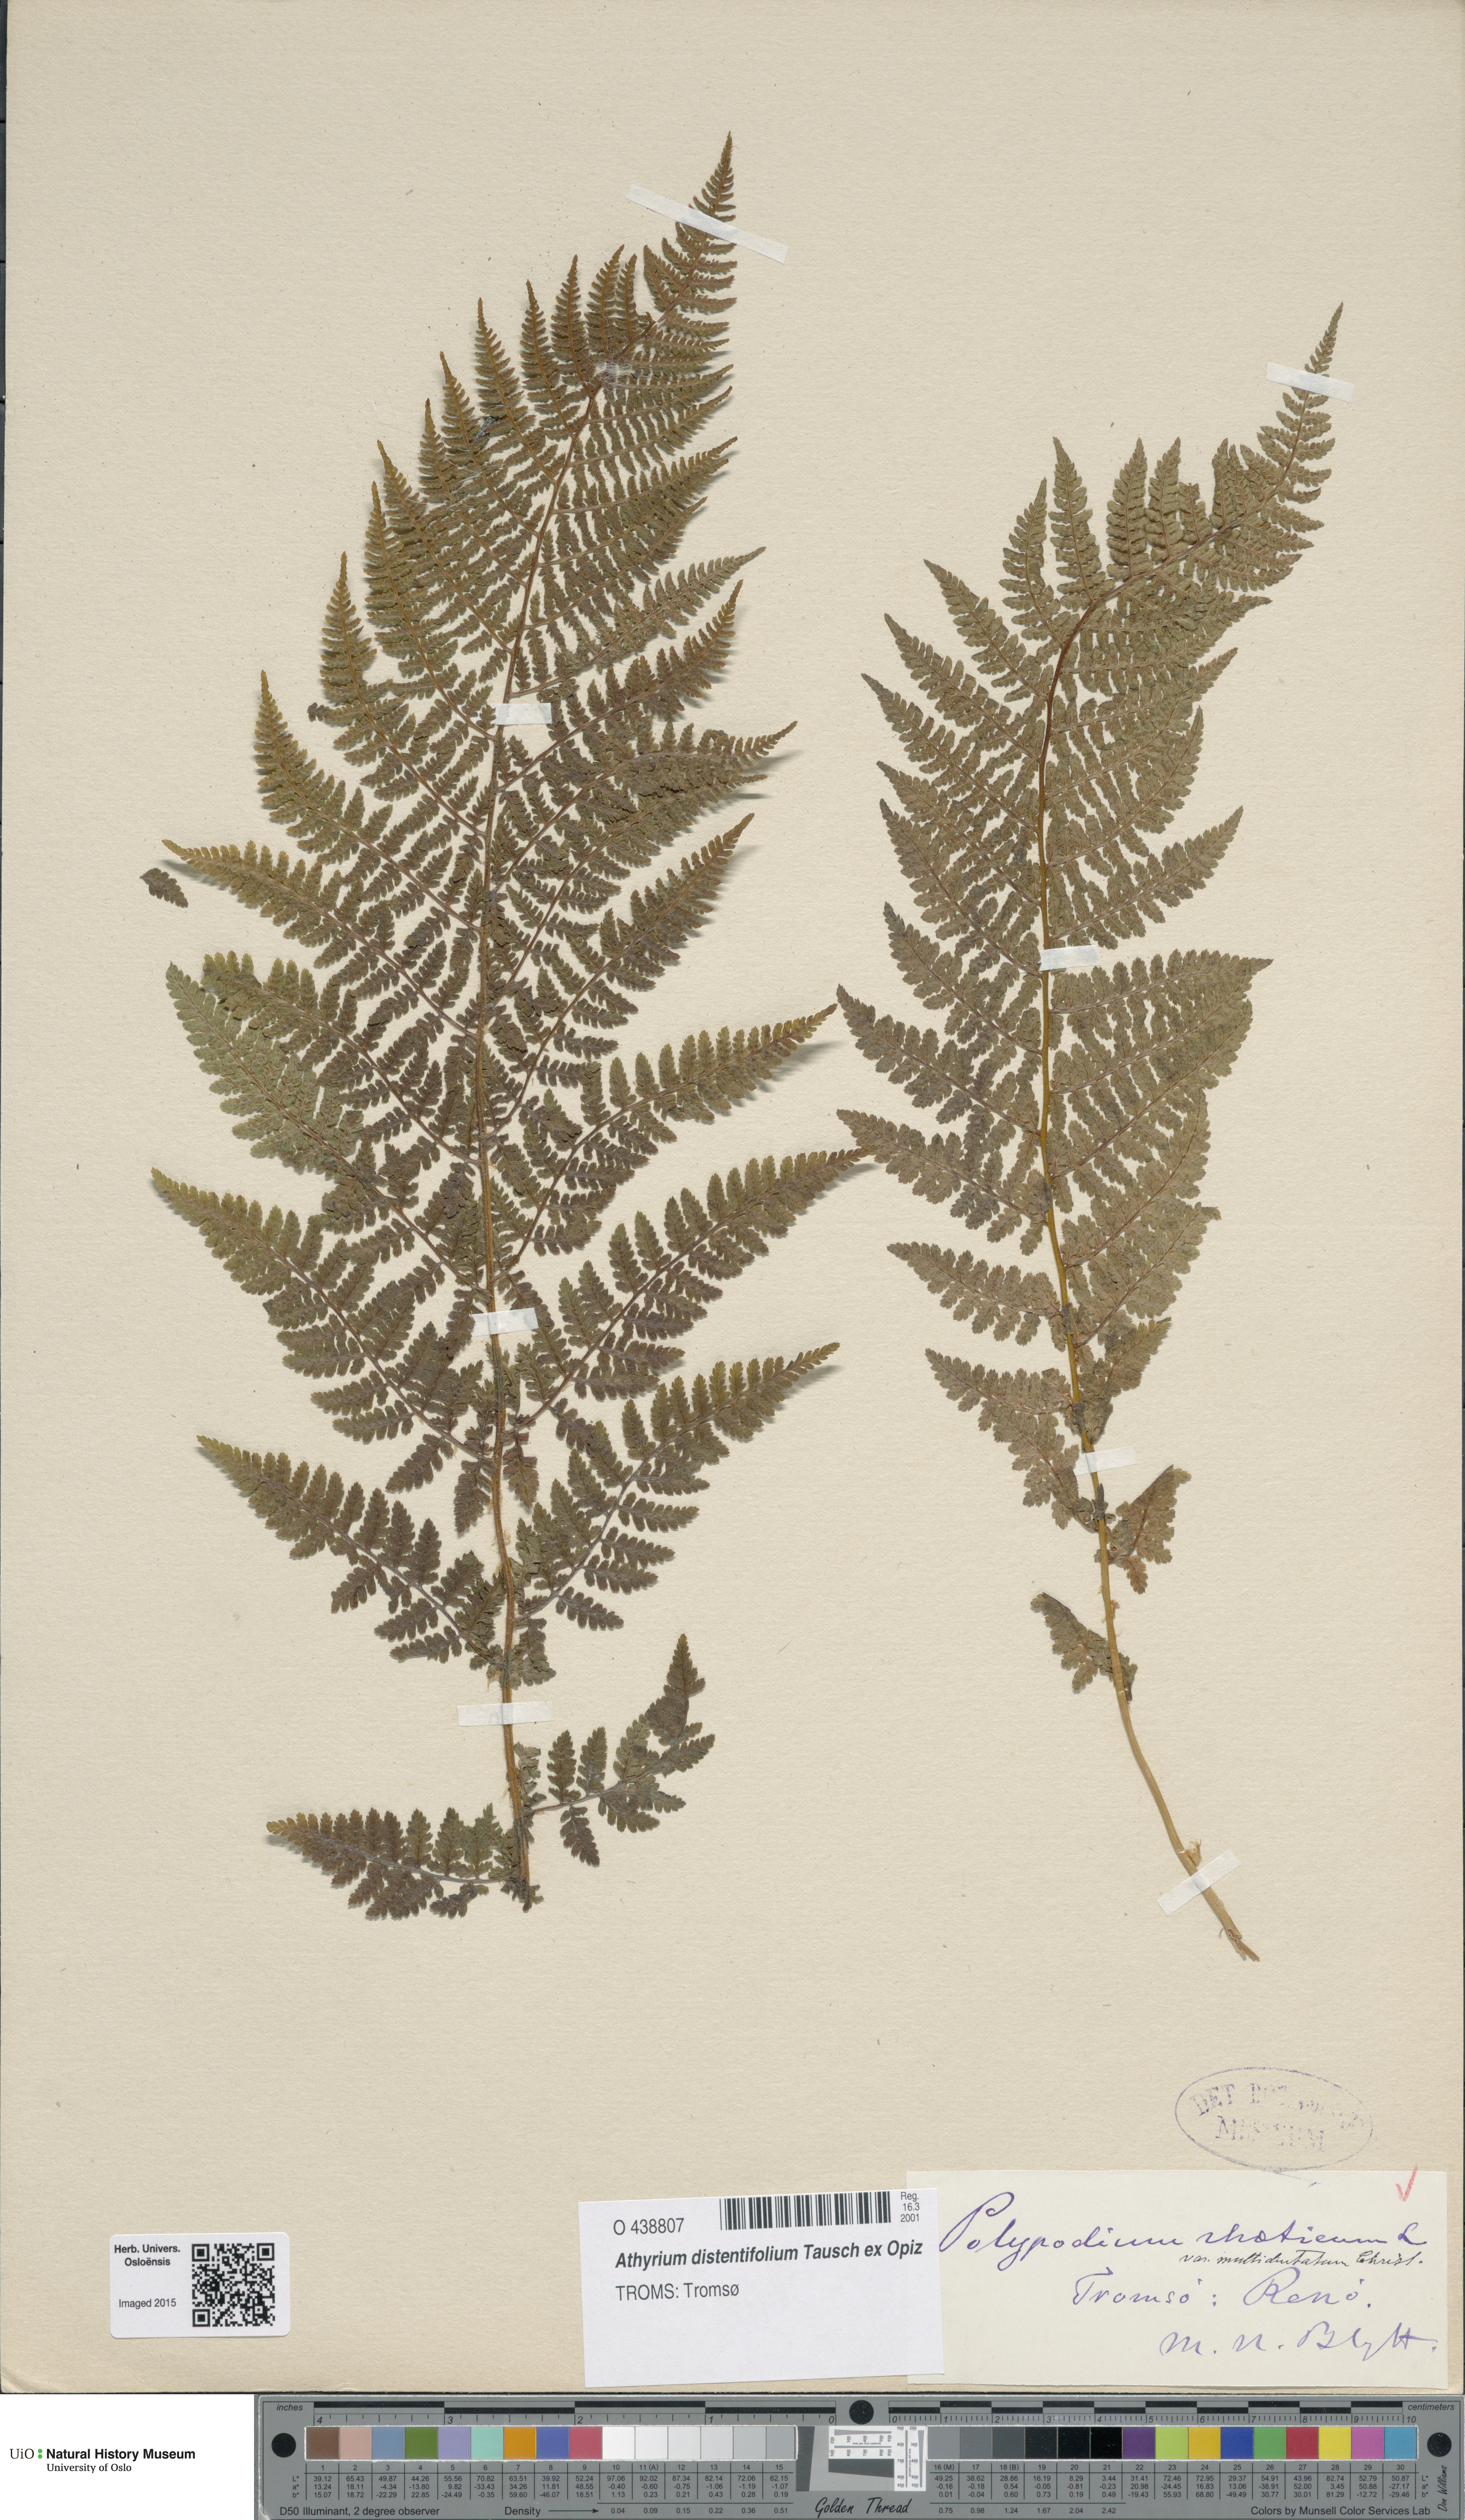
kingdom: Plantae
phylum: Tracheophyta
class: Polypodiopsida
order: Polypodiales
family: Athyriaceae
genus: Pseudathyrium
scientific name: Pseudathyrium alpestre
